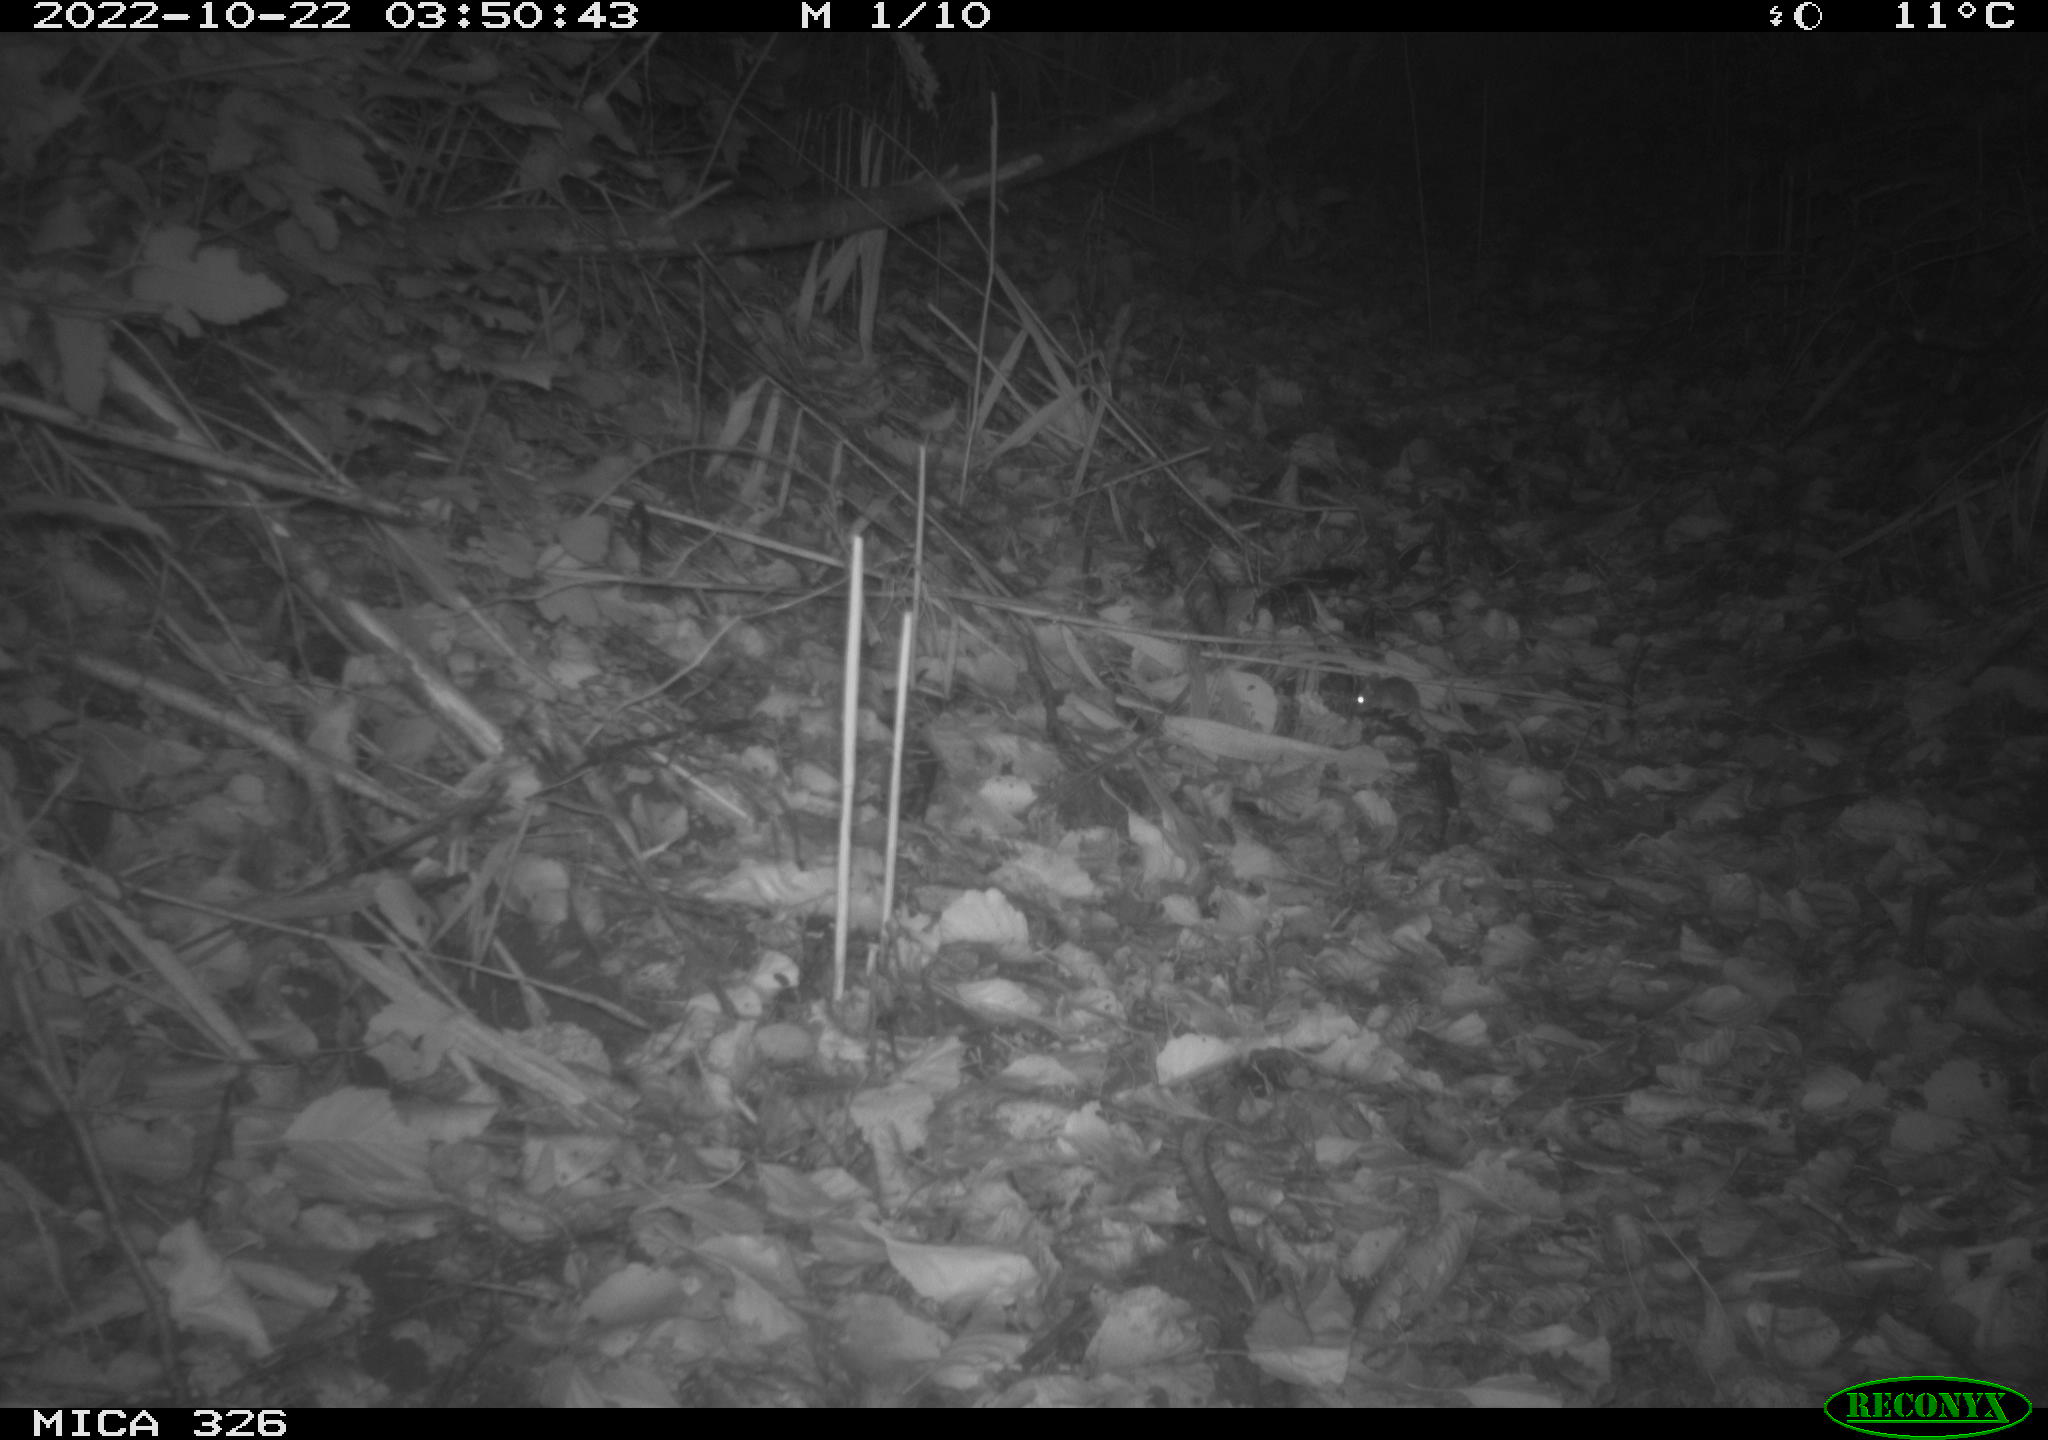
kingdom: Animalia
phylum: Chordata
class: Mammalia
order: Rodentia
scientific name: Rodentia
